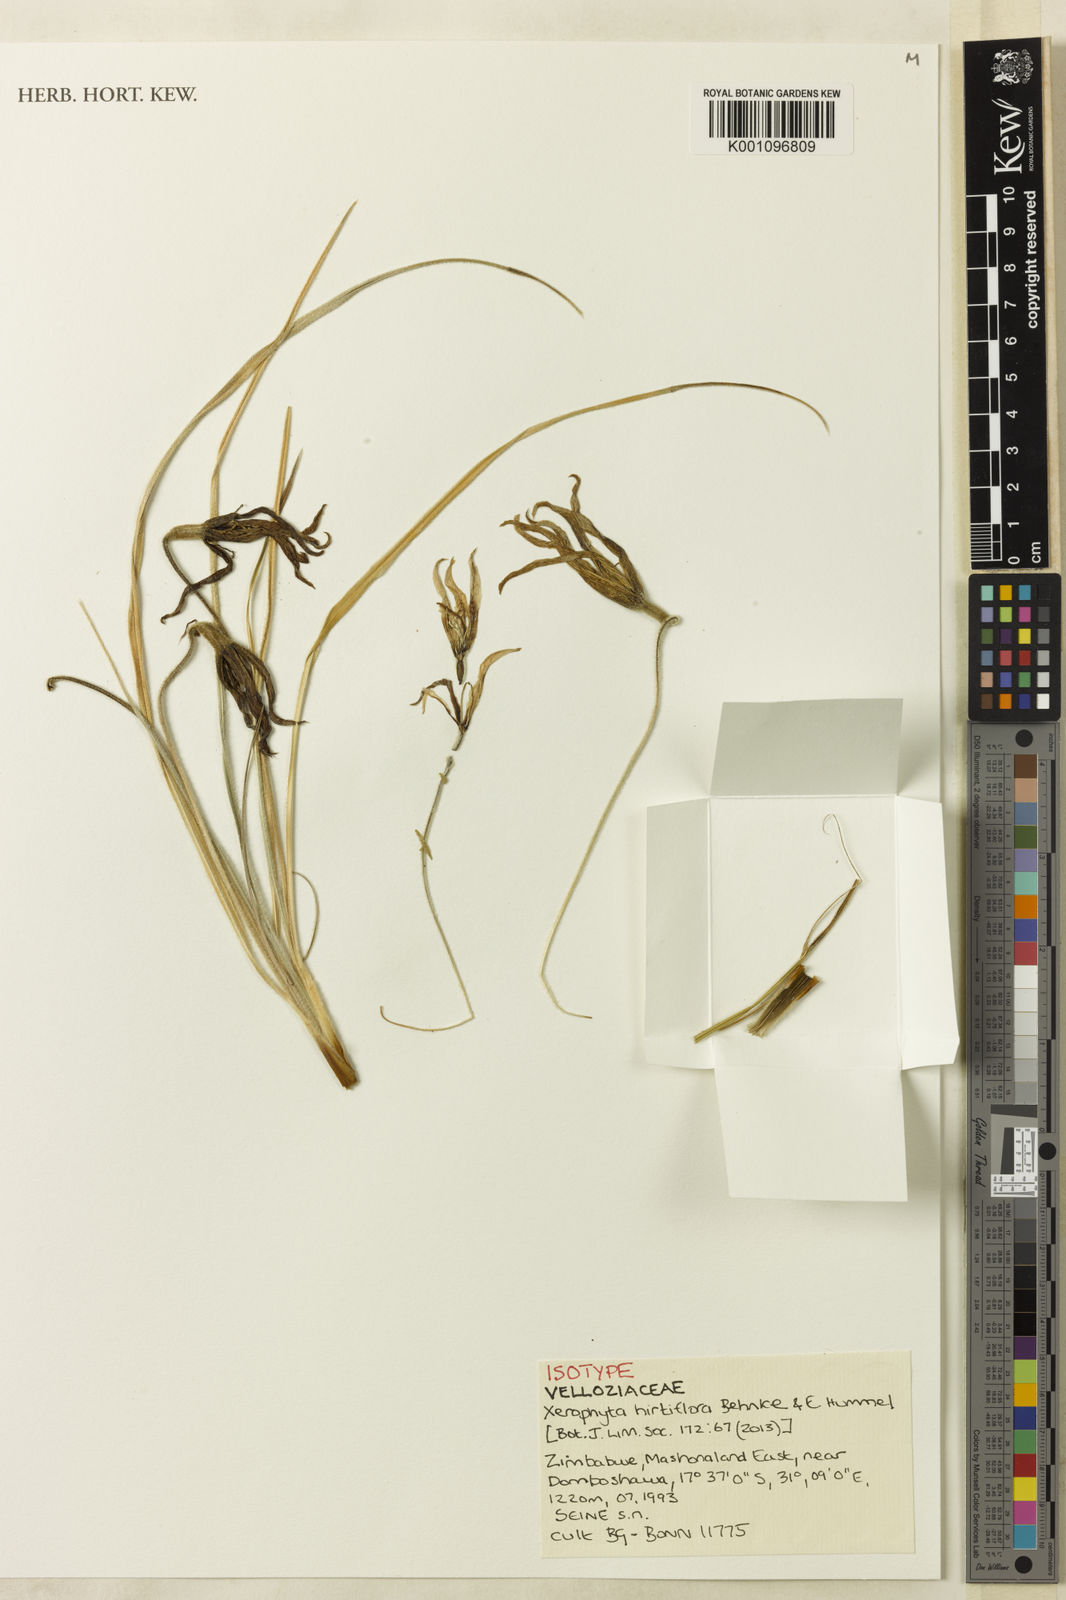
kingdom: Plantae
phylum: Tracheophyta
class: Liliopsida
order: Pandanales
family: Velloziaceae
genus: Xerophyta
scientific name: Xerophyta hirtiflora
